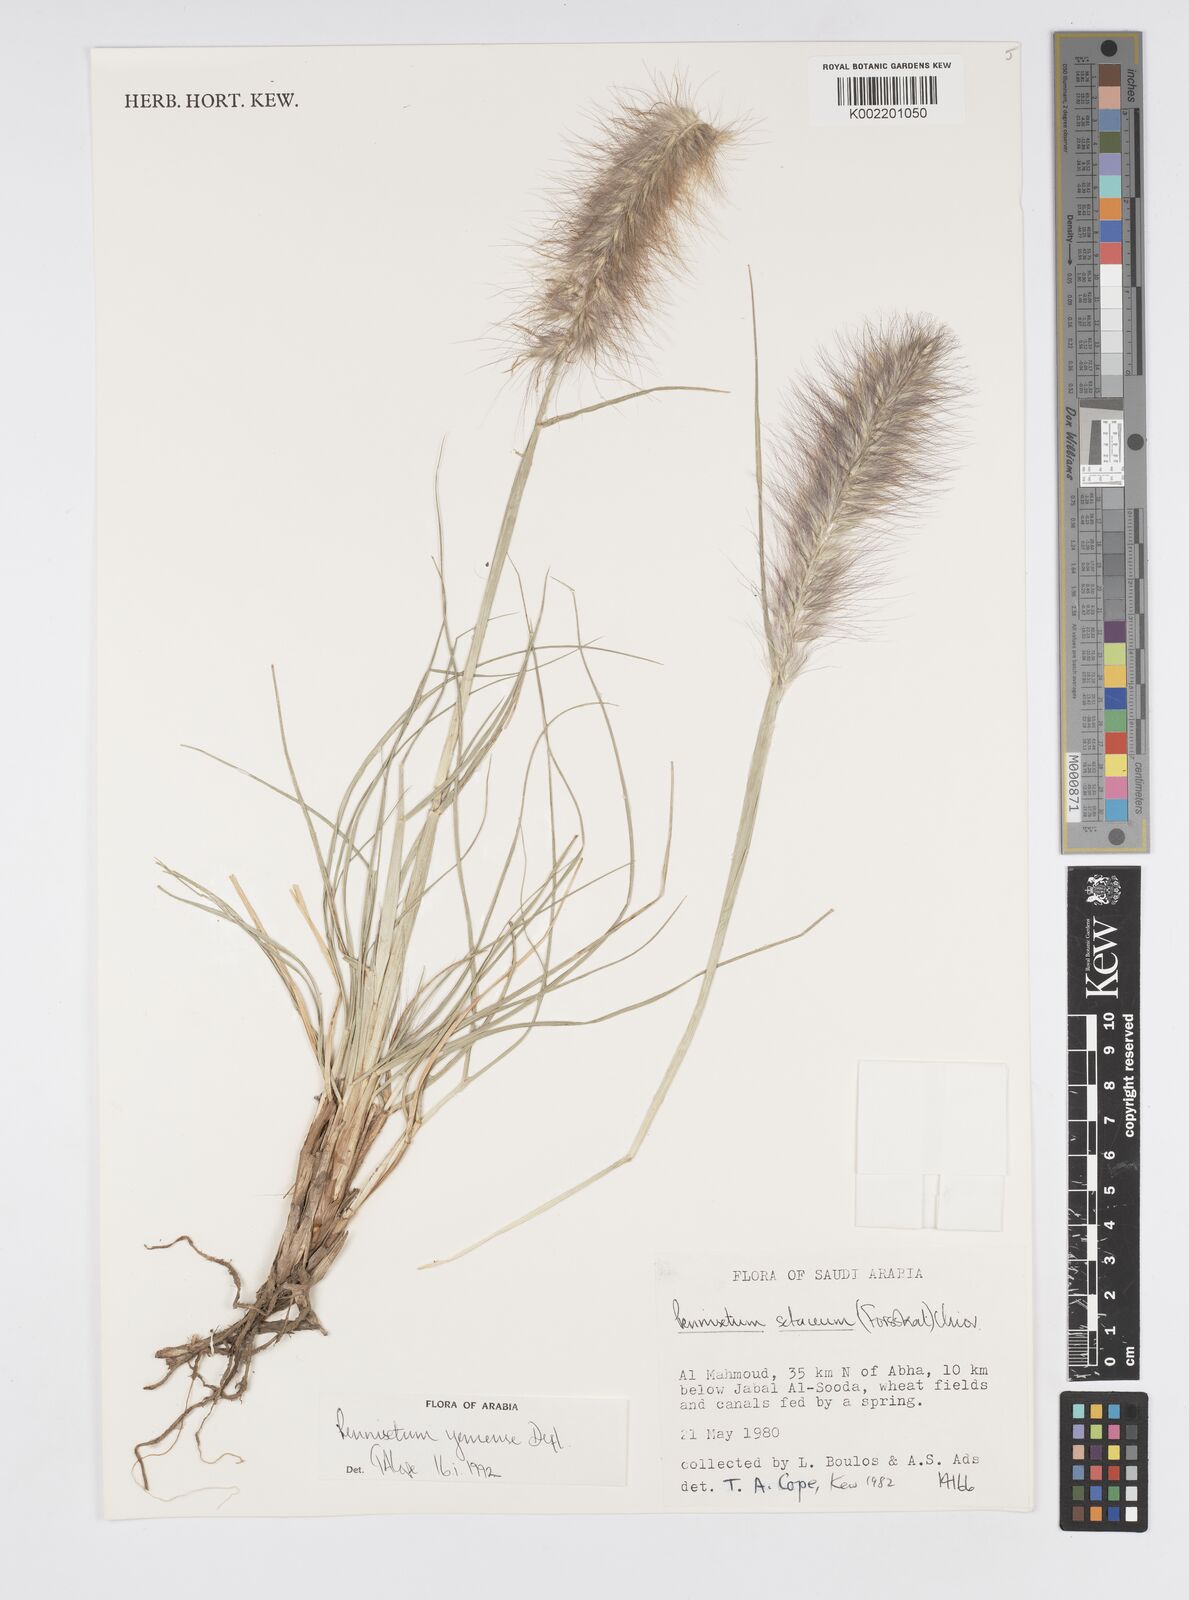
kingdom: Plantae
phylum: Tracheophyta
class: Liliopsida
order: Poales
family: Poaceae
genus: Cenchrus
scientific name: Cenchrus yemensis
